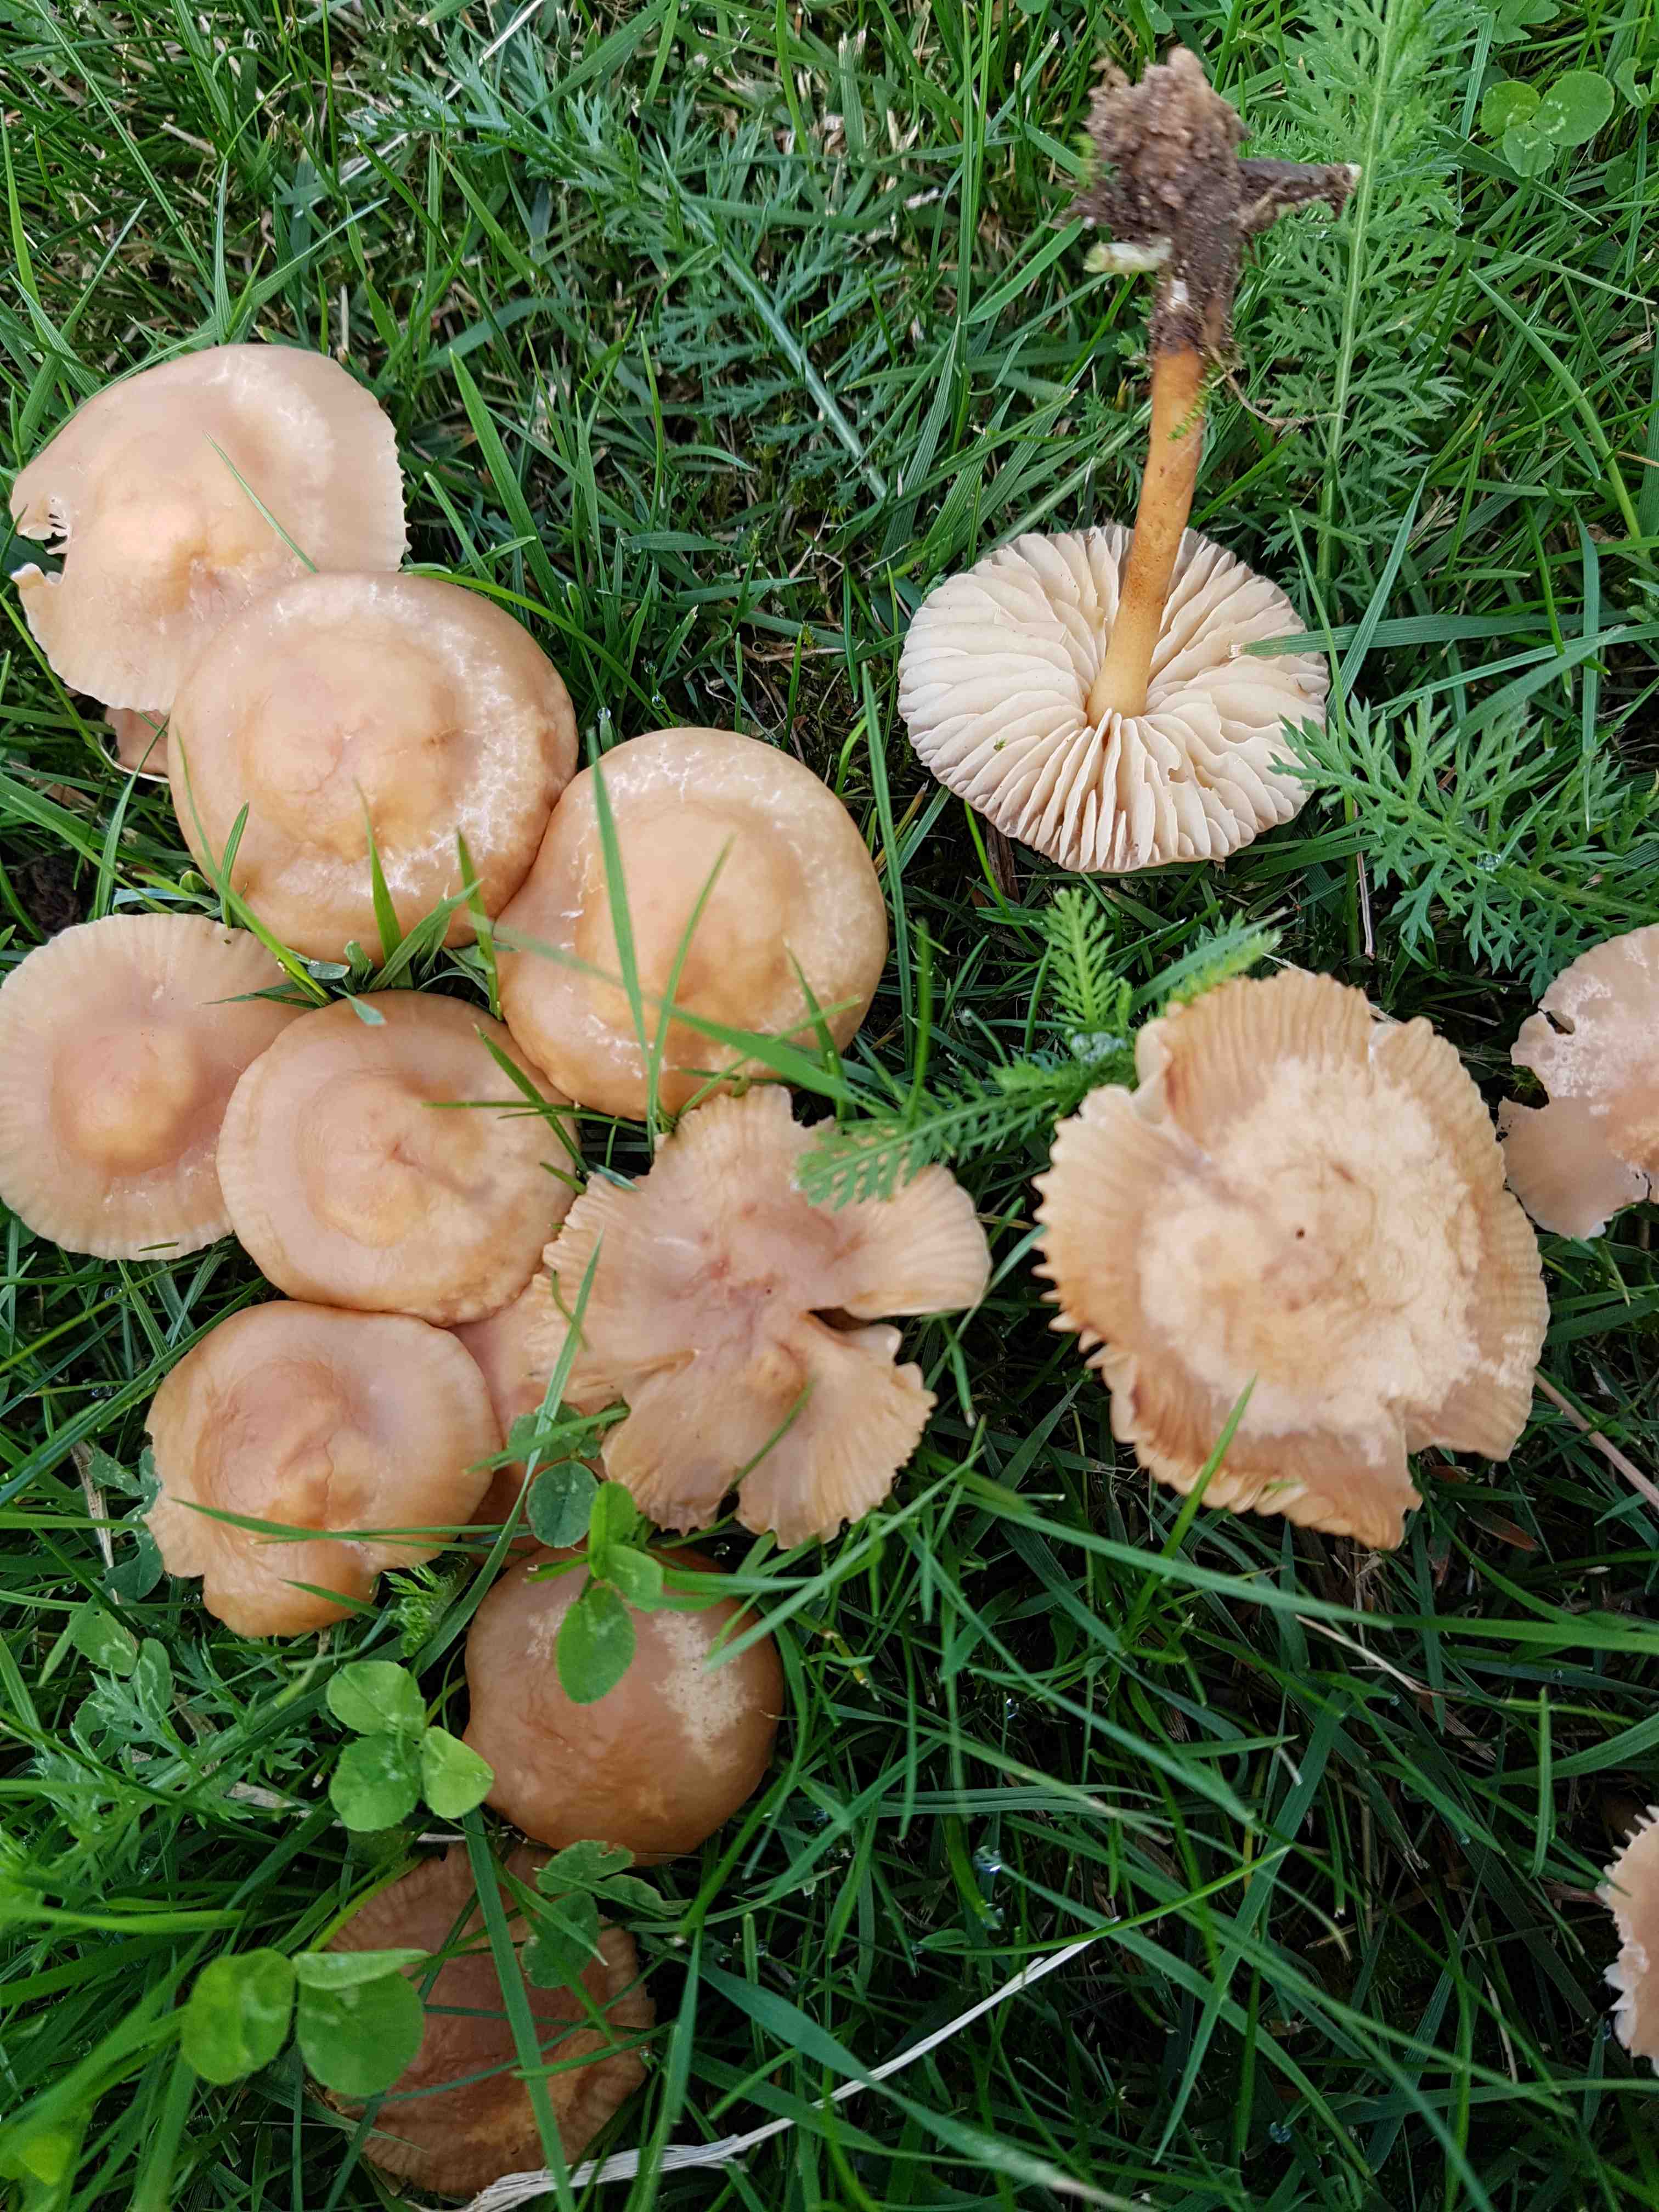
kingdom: Fungi
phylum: Basidiomycota
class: Agaricomycetes
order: Agaricales
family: Marasmiaceae
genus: Marasmius
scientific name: Marasmius oreades
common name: elledans-bruskhat
